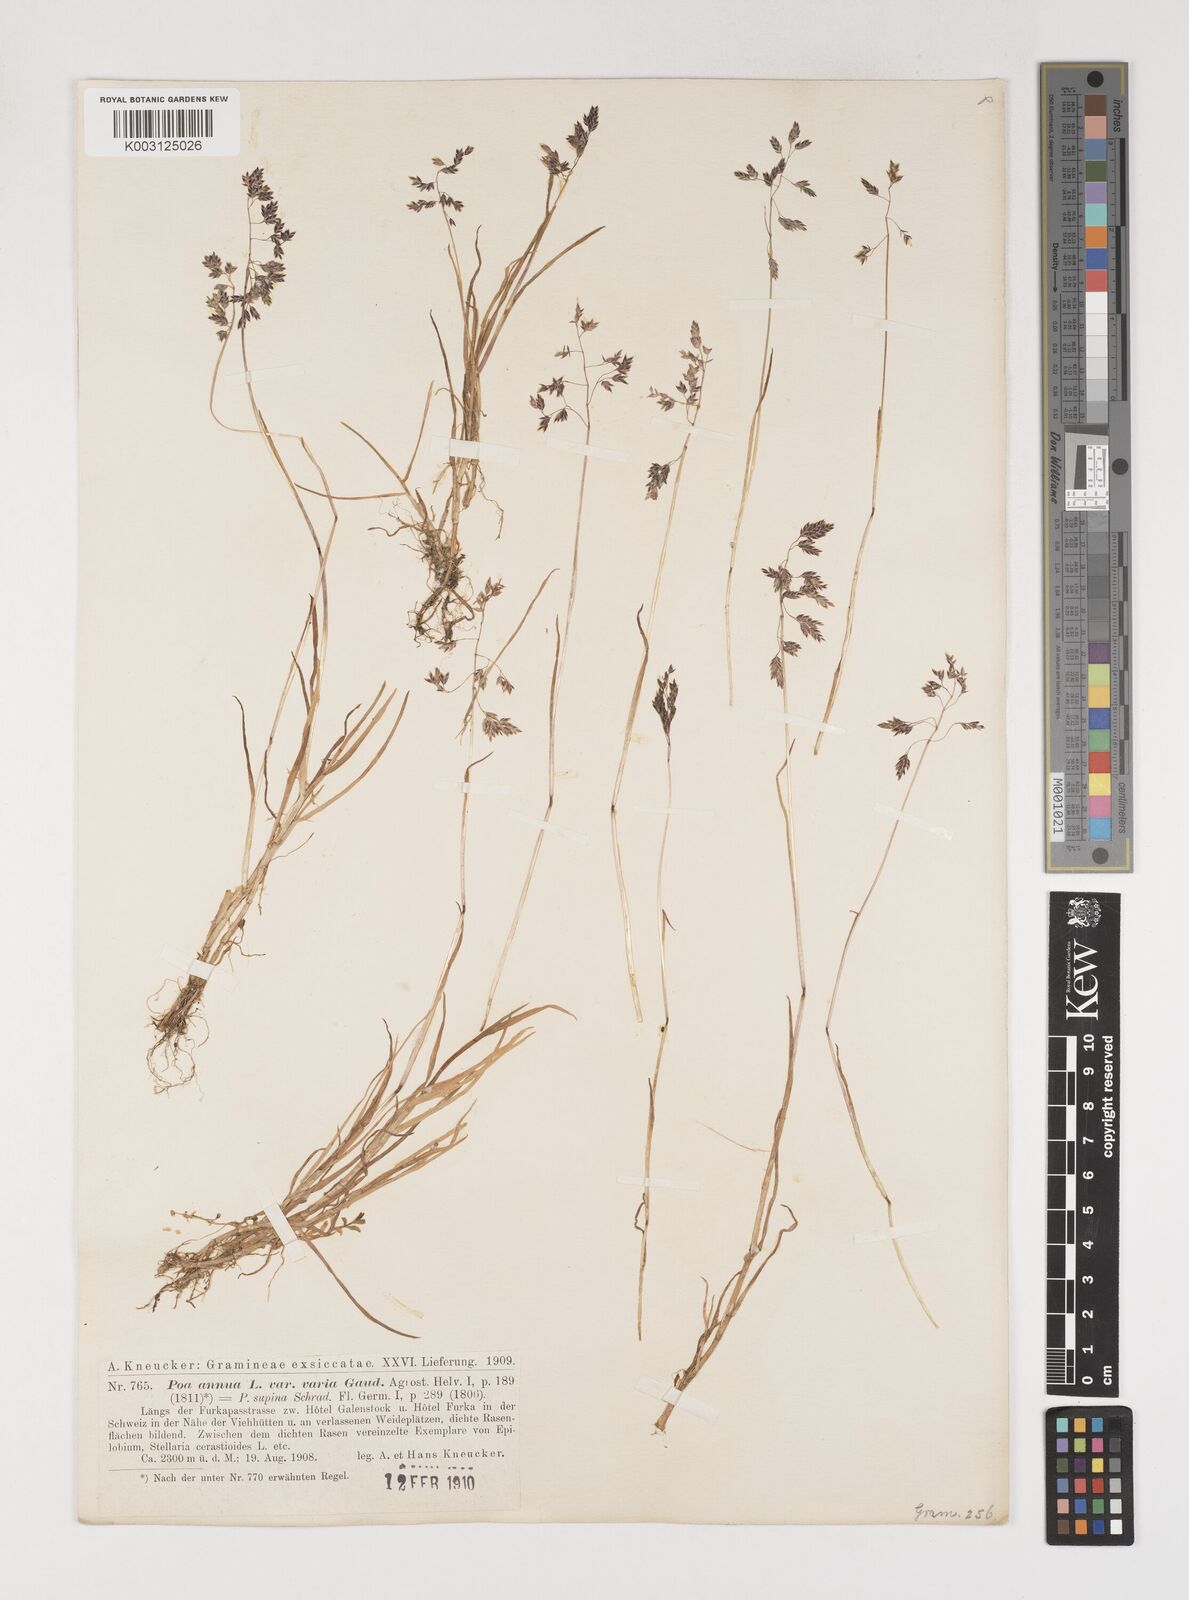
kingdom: Plantae
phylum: Tracheophyta
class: Liliopsida
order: Poales
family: Poaceae
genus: Poa
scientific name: Poa supina
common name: Supina bluegrass
